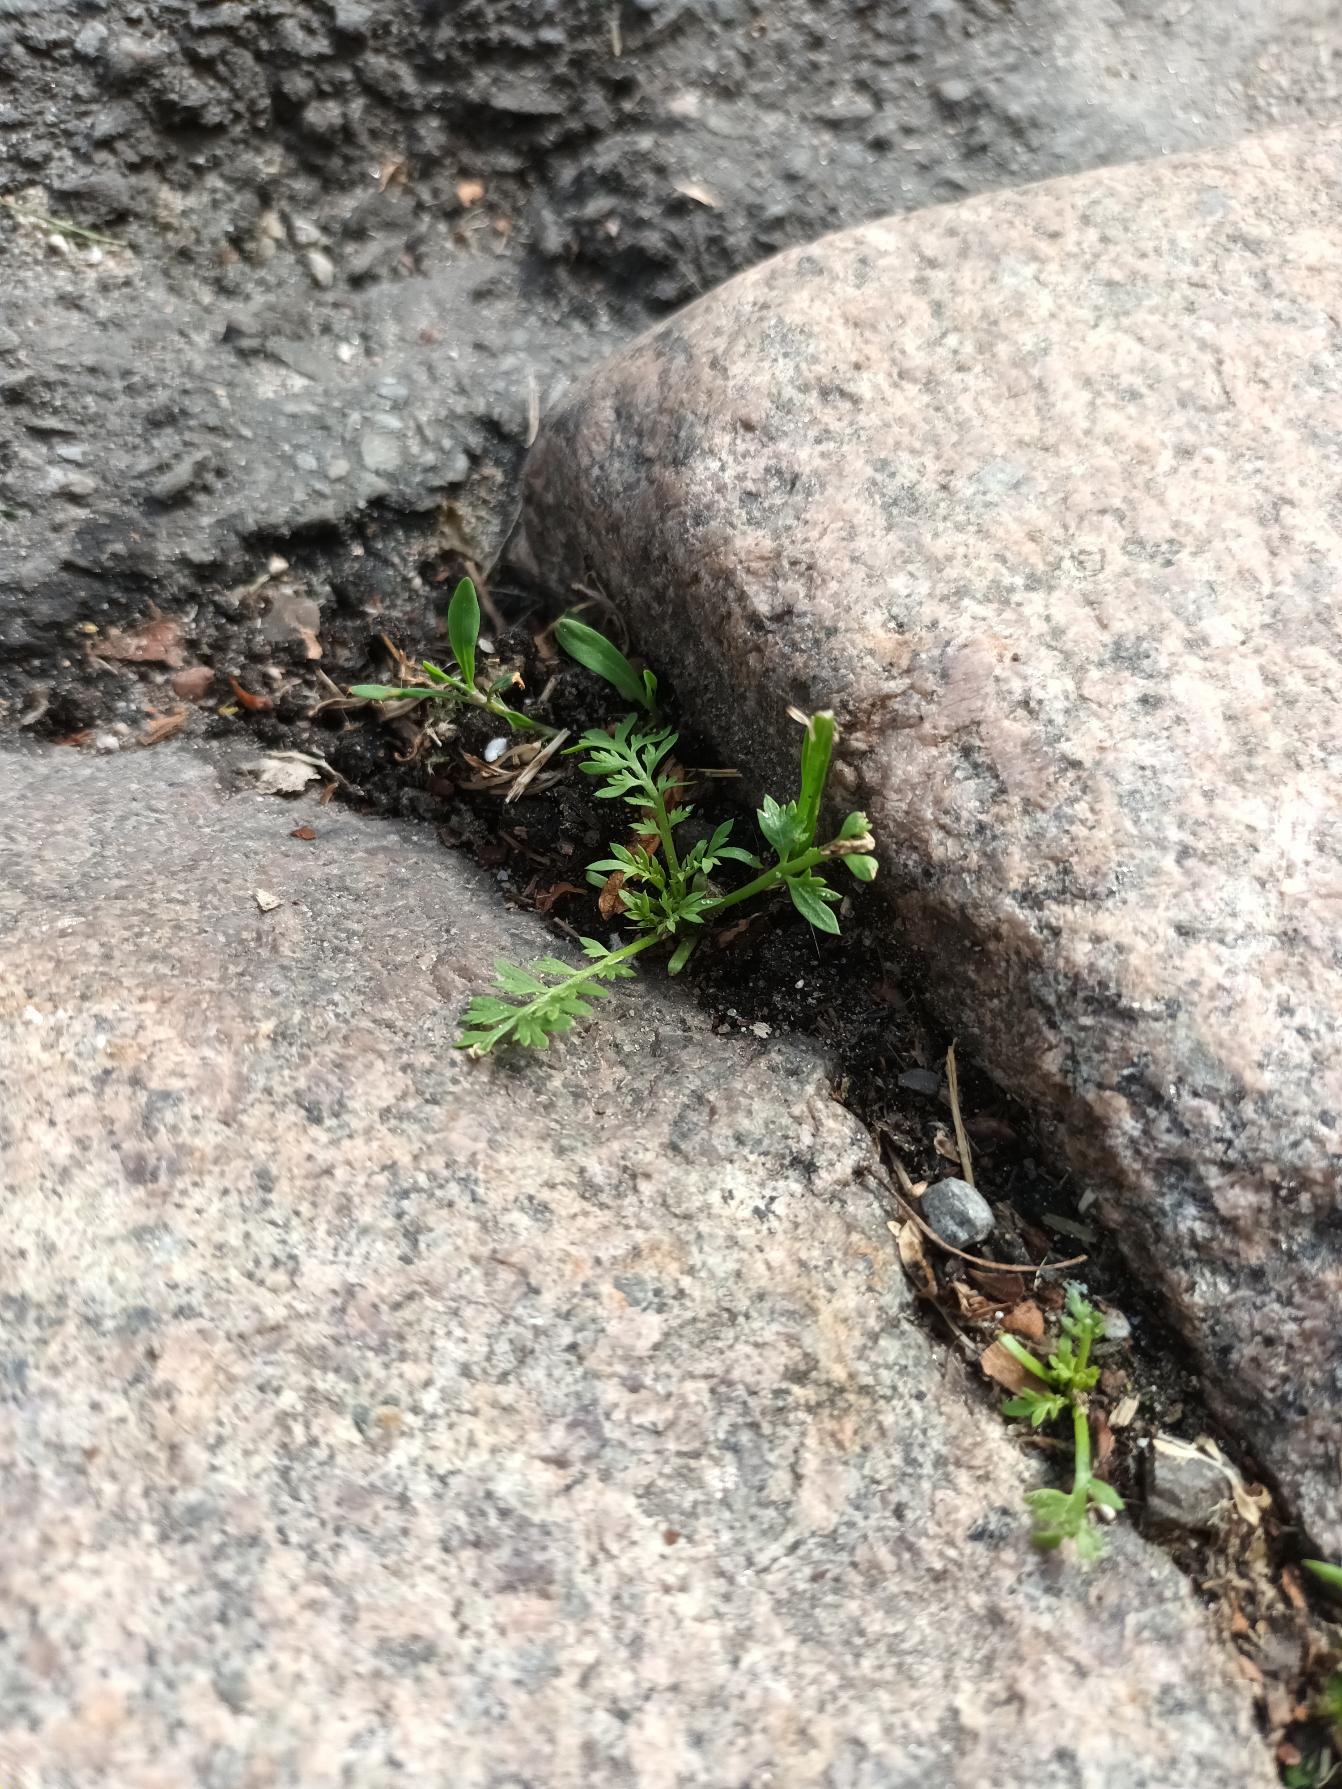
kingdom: Plantae
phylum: Tracheophyta
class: Magnoliopsida
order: Brassicales
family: Brassicaceae
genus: Lepidium
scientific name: Lepidium didymum
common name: Liden ravnefod
